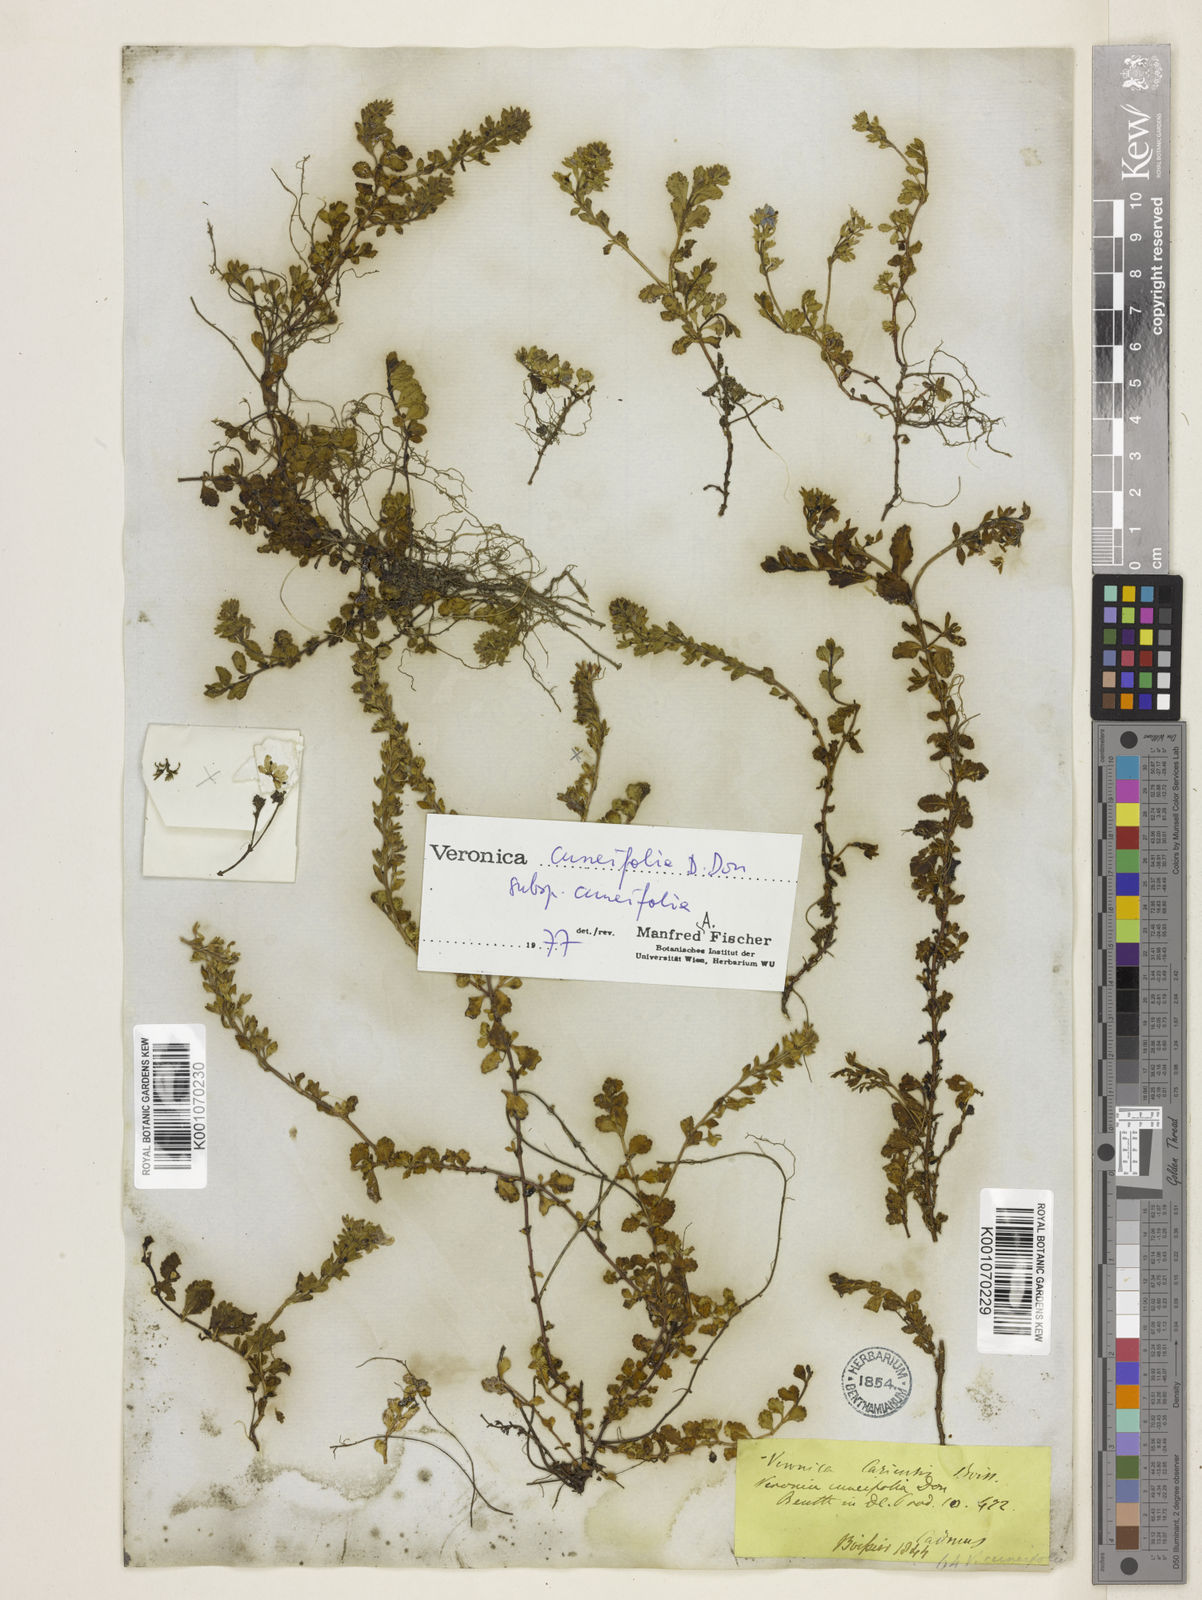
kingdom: Plantae
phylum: Tracheophyta
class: Magnoliopsida
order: Lamiales
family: Plantaginaceae
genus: Veronica
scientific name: Veronica cuneifolia
